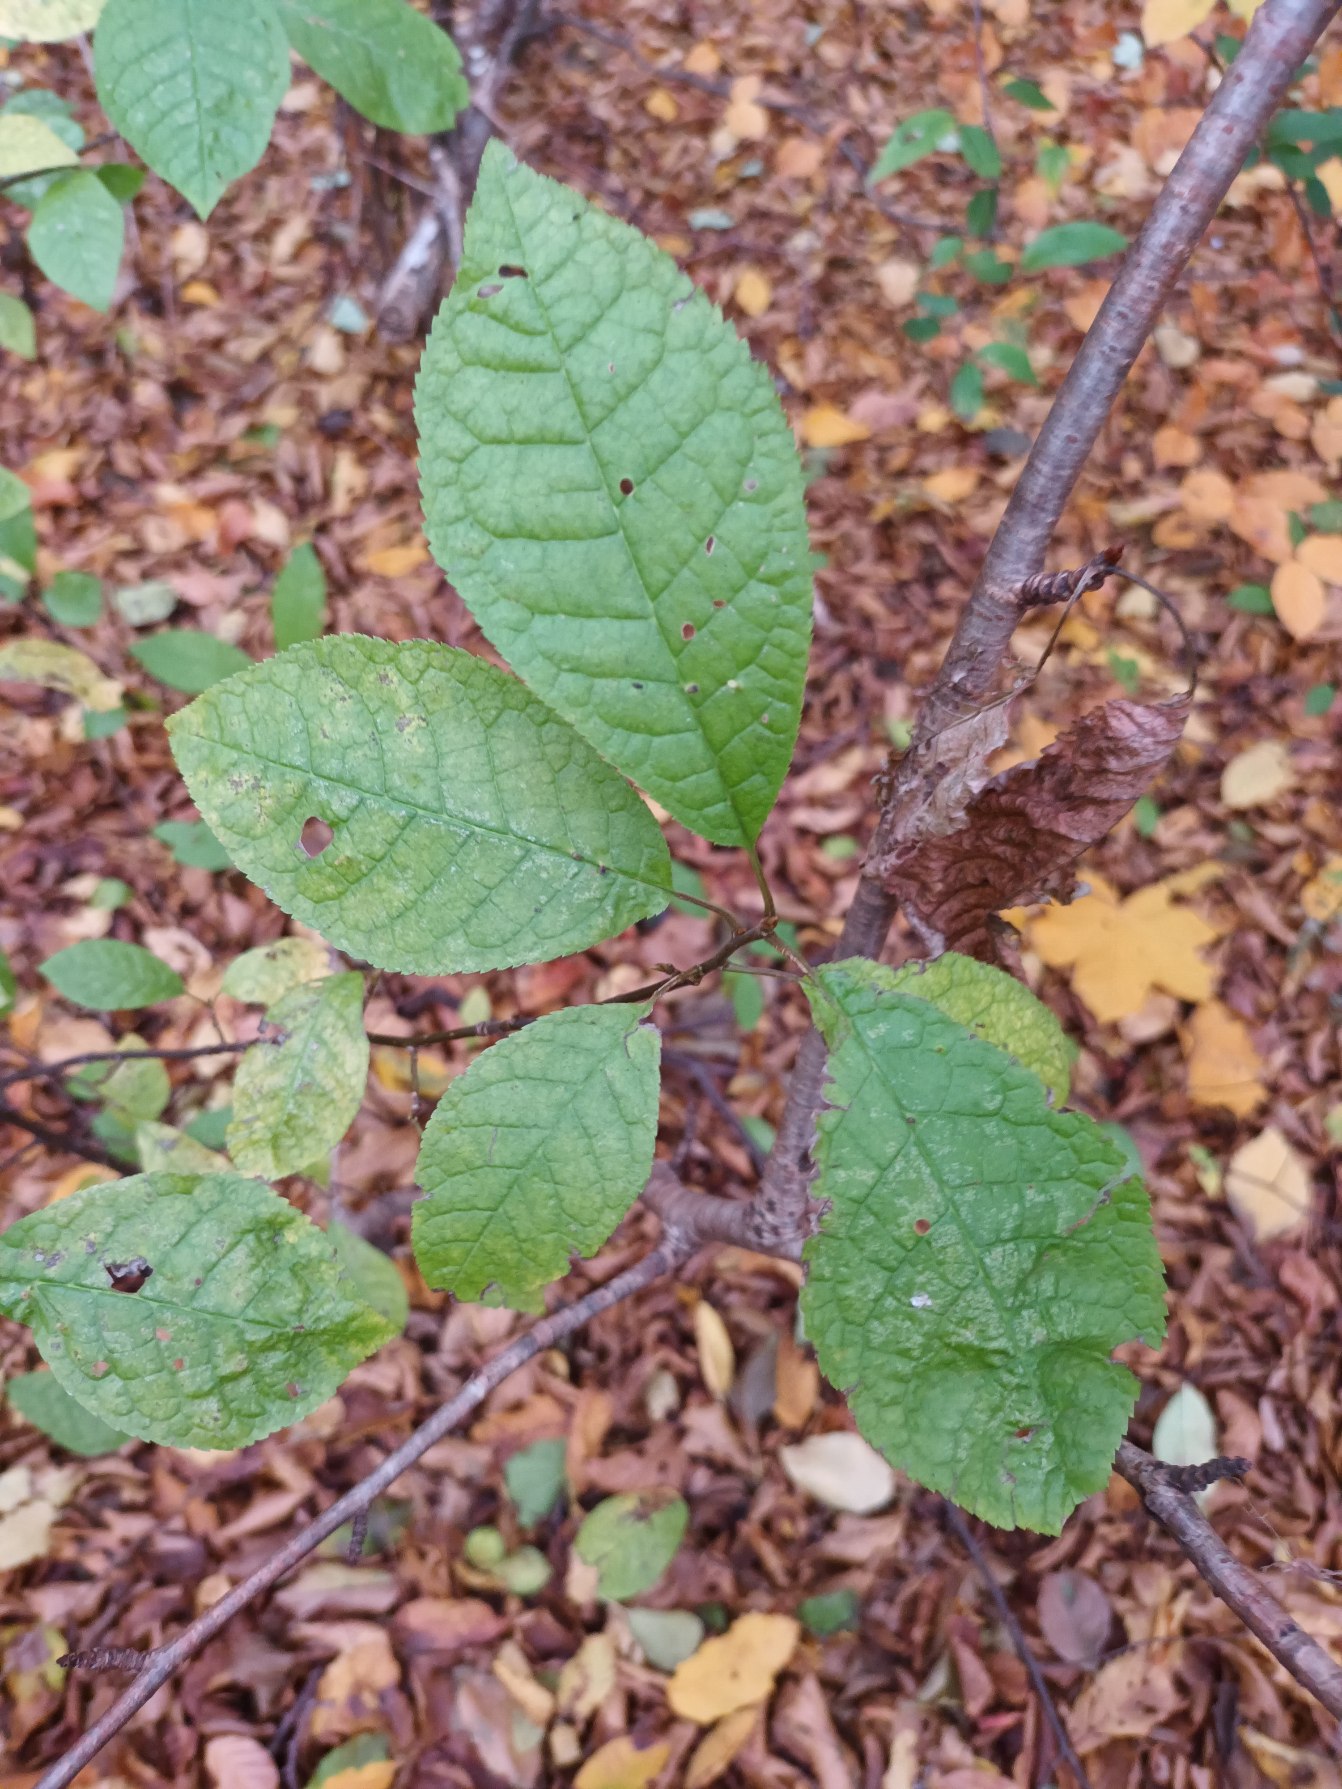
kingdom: Plantae
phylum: Tracheophyta
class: Magnoliopsida
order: Rosales
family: Rosaceae
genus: Prunus
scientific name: Prunus padus
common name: Almindelig hæg
